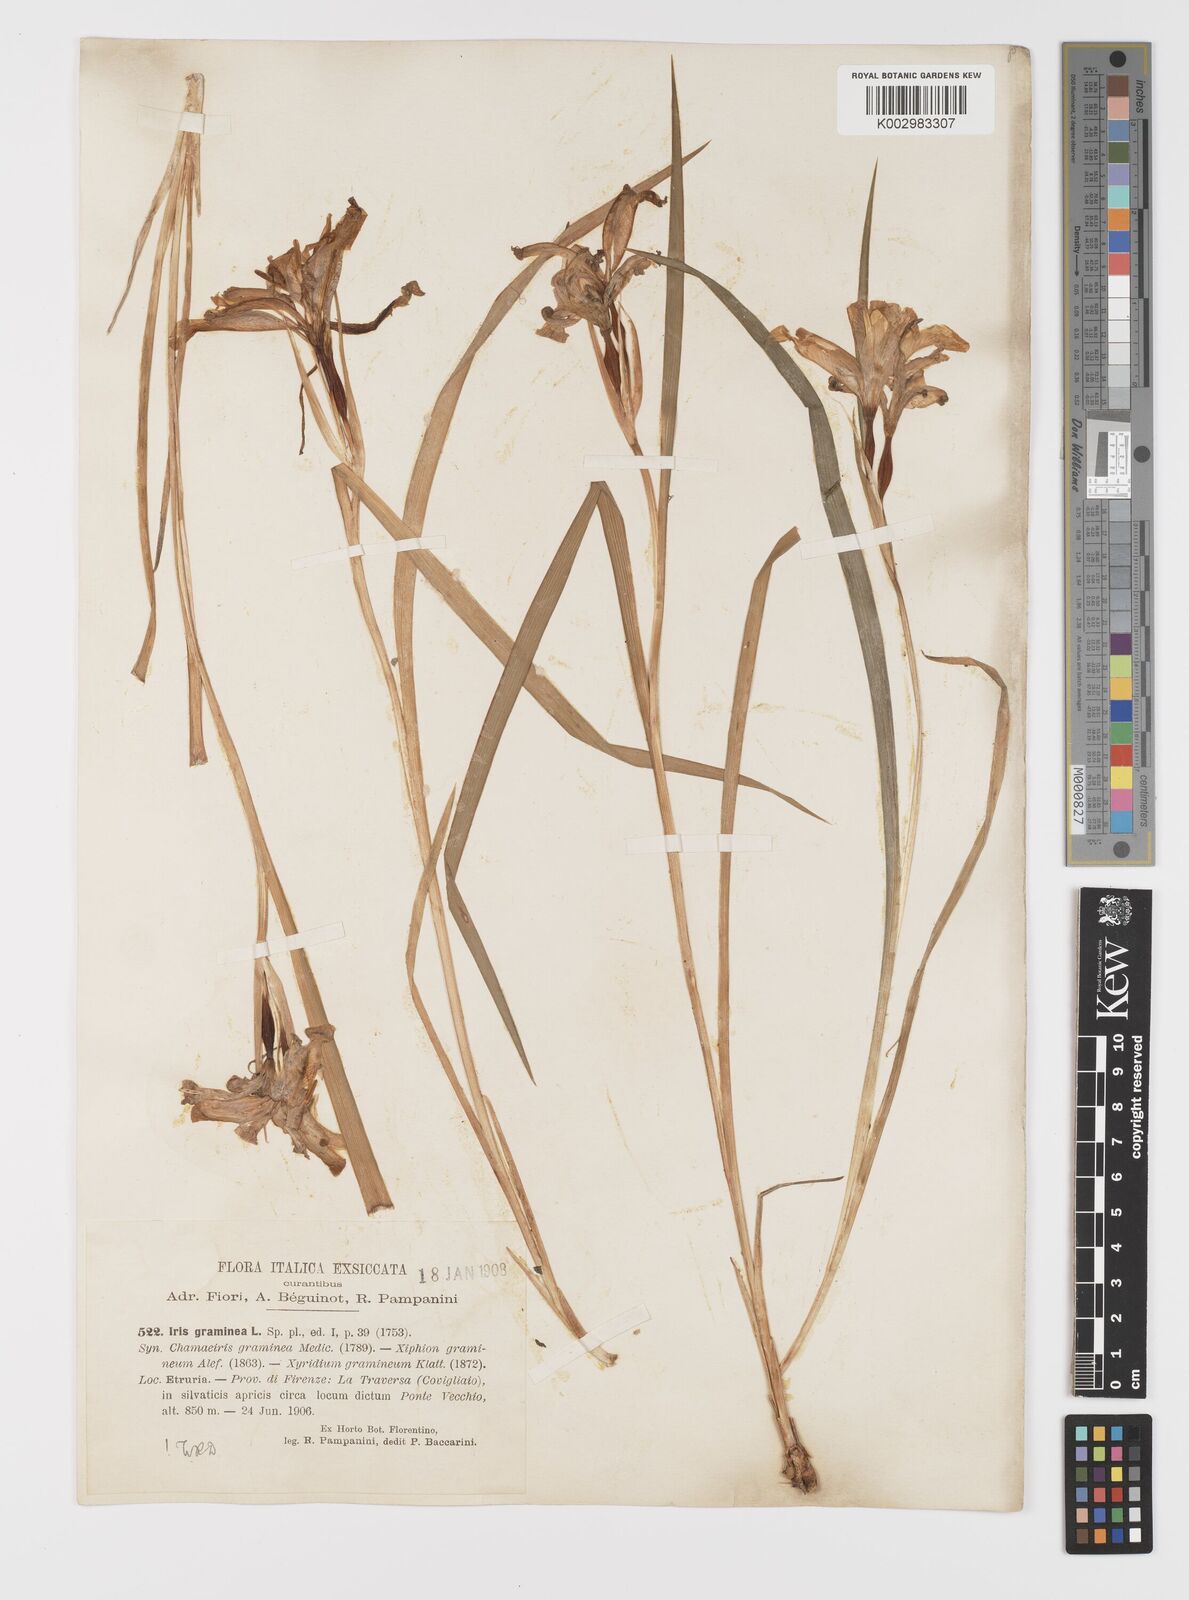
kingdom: Plantae
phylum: Tracheophyta
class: Liliopsida
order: Asparagales
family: Iridaceae
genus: Iris
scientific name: Iris graminea
